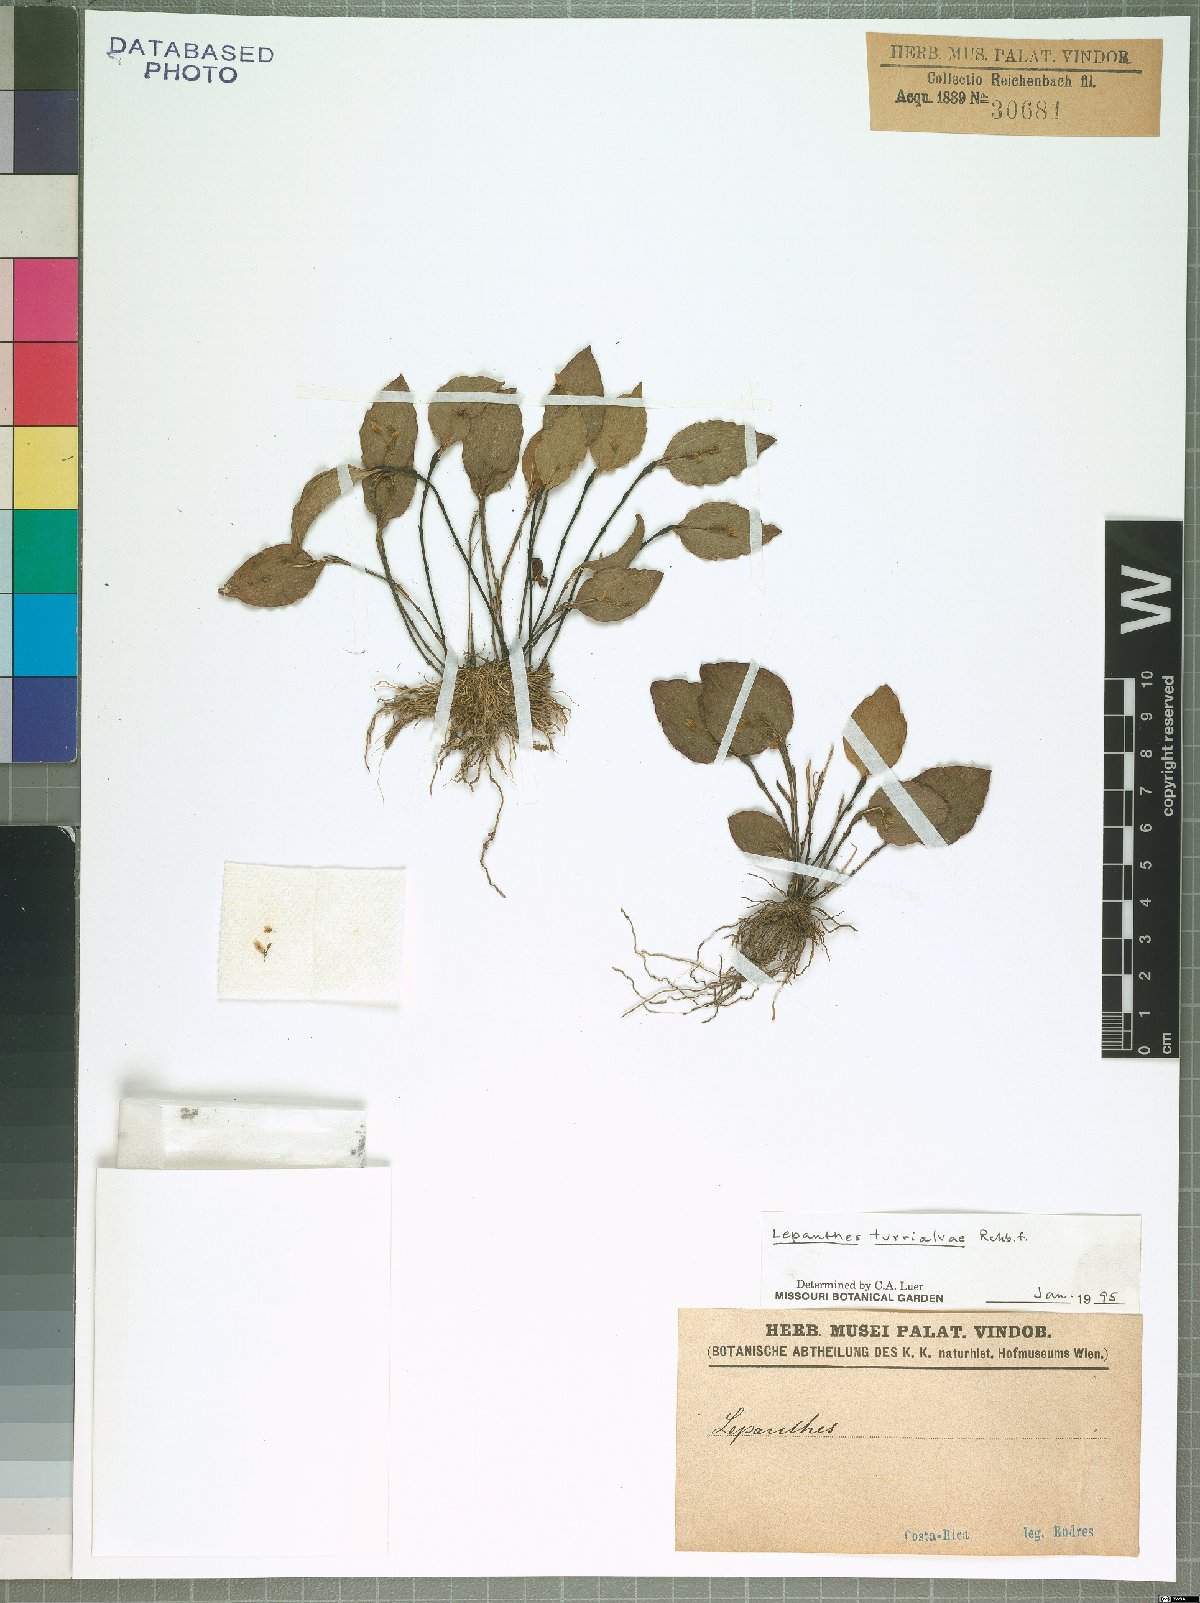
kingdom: Plantae
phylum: Tracheophyta
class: Liliopsida
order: Asparagales
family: Orchidaceae
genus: Lepanthes
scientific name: Lepanthes turialvae
